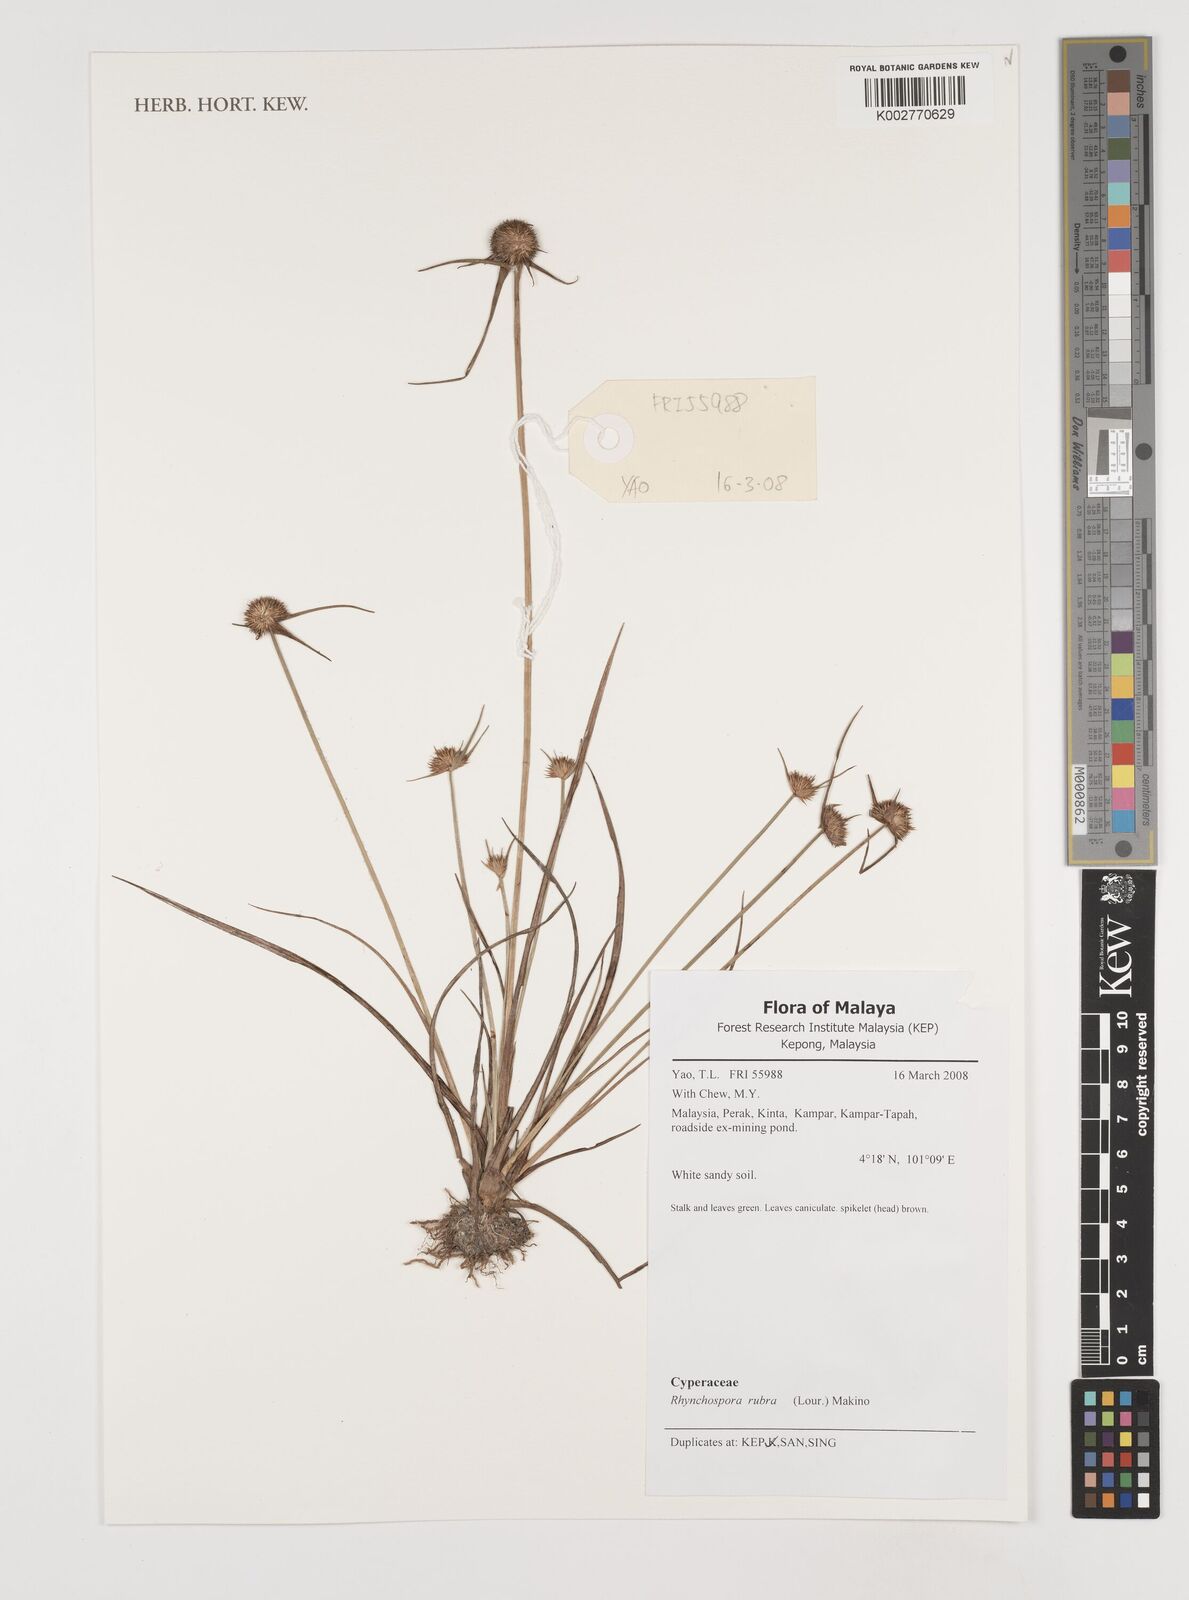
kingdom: Plantae
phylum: Tracheophyta
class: Liliopsida
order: Poales
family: Cyperaceae
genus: Rhynchospora
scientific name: Rhynchospora rubra
